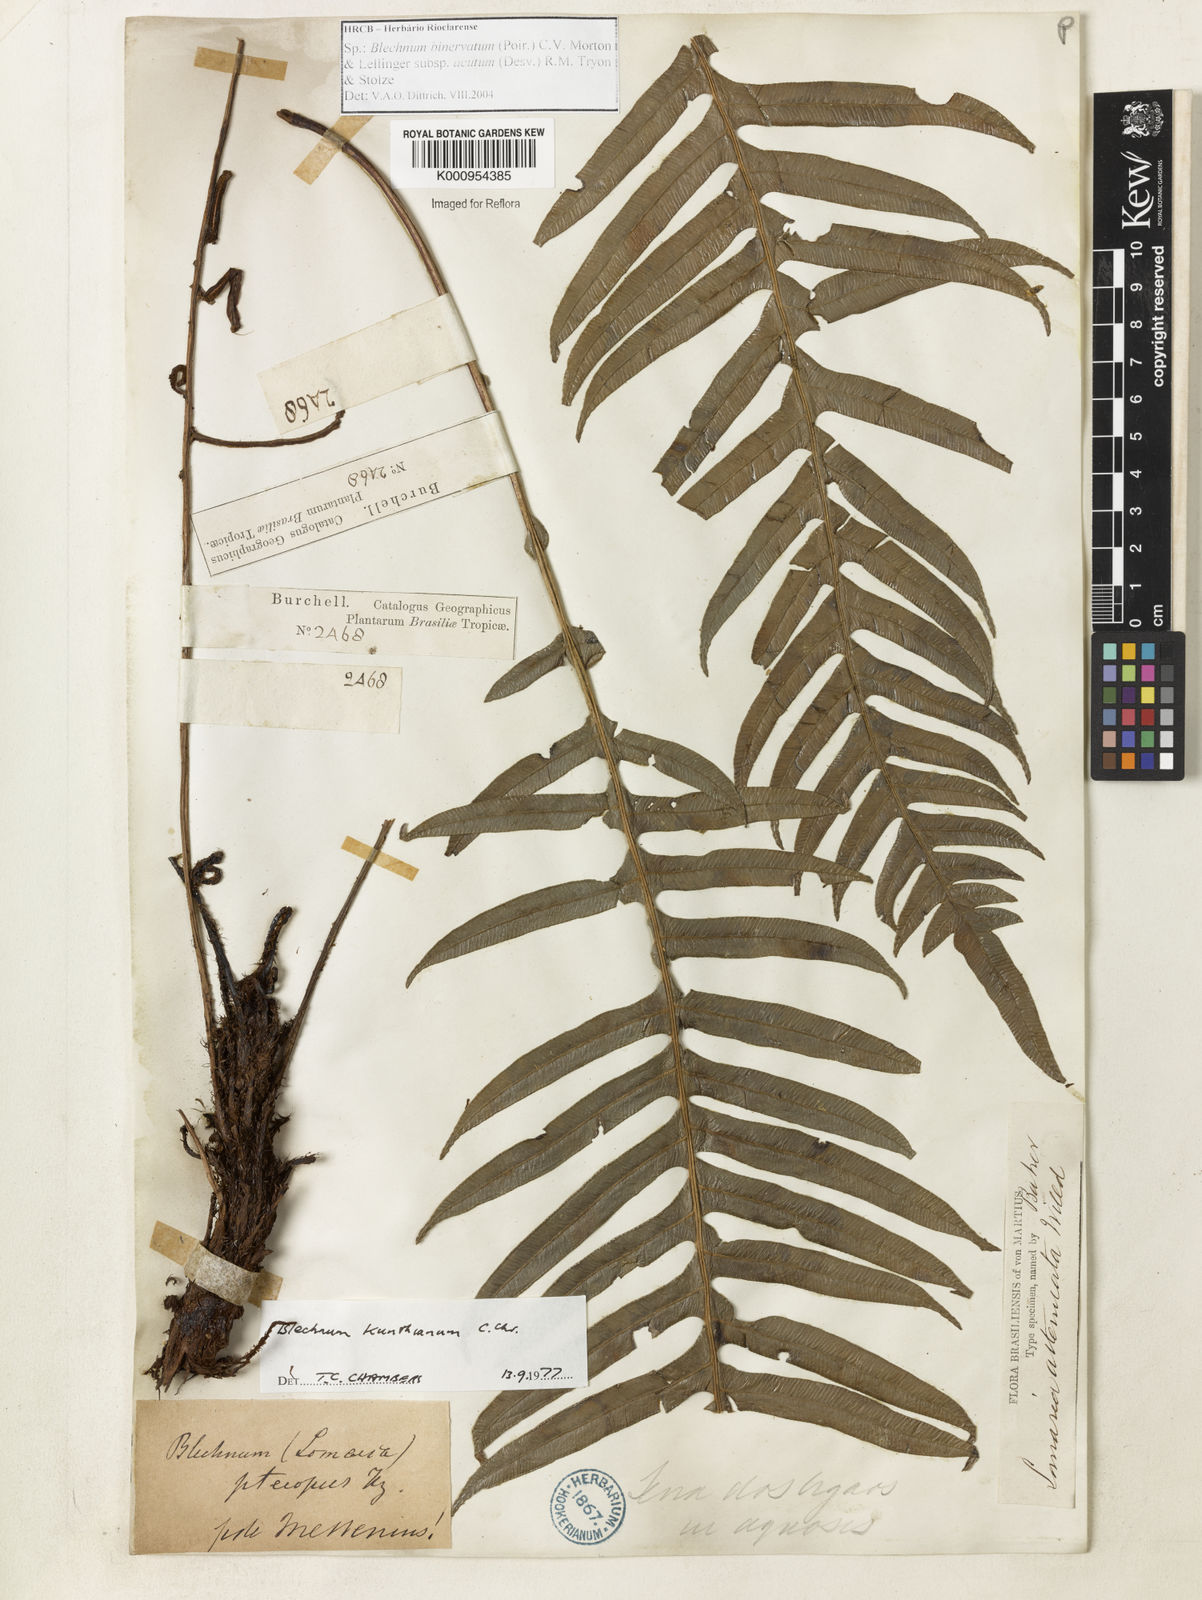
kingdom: Plantae
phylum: Tracheophyta
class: Polypodiopsida
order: Polypodiales
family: Blechnaceae
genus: Lomaridium
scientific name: Lomaridium acutum
